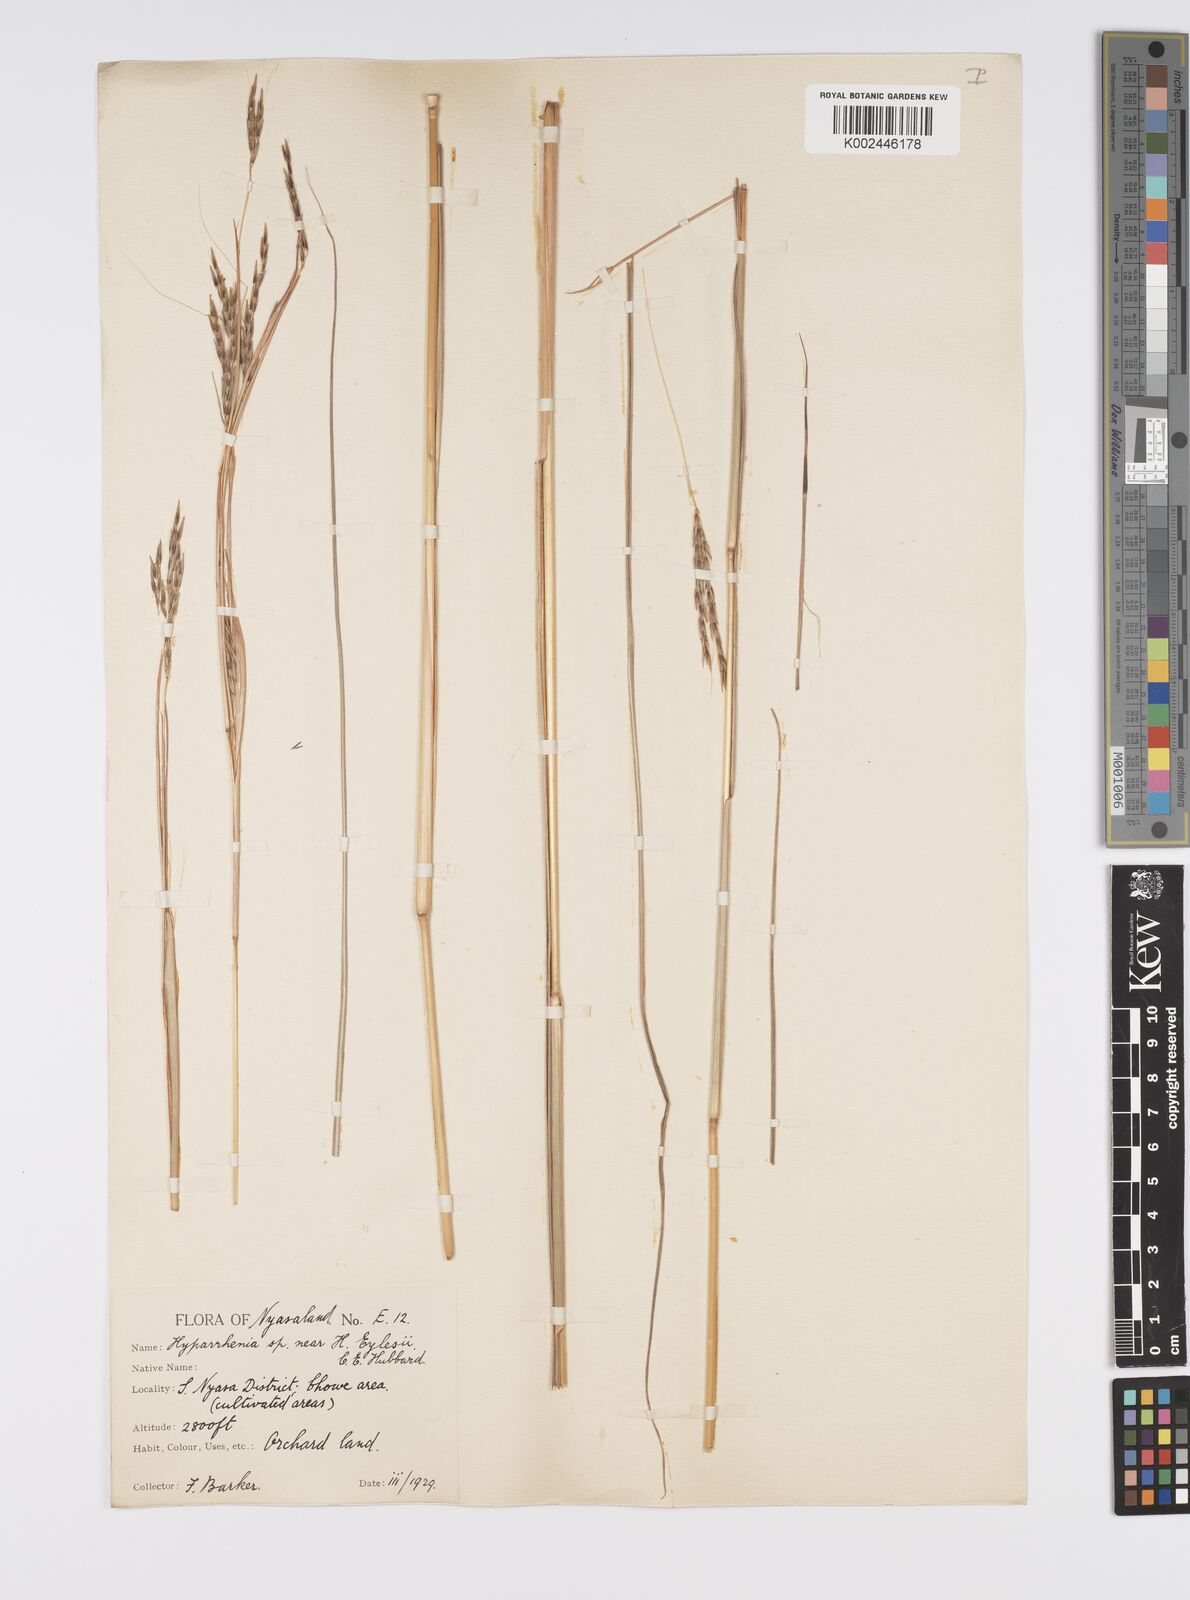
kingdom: Plantae
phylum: Tracheophyta
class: Liliopsida
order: Poales
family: Poaceae
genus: Elymandra
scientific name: Elymandra grallata
